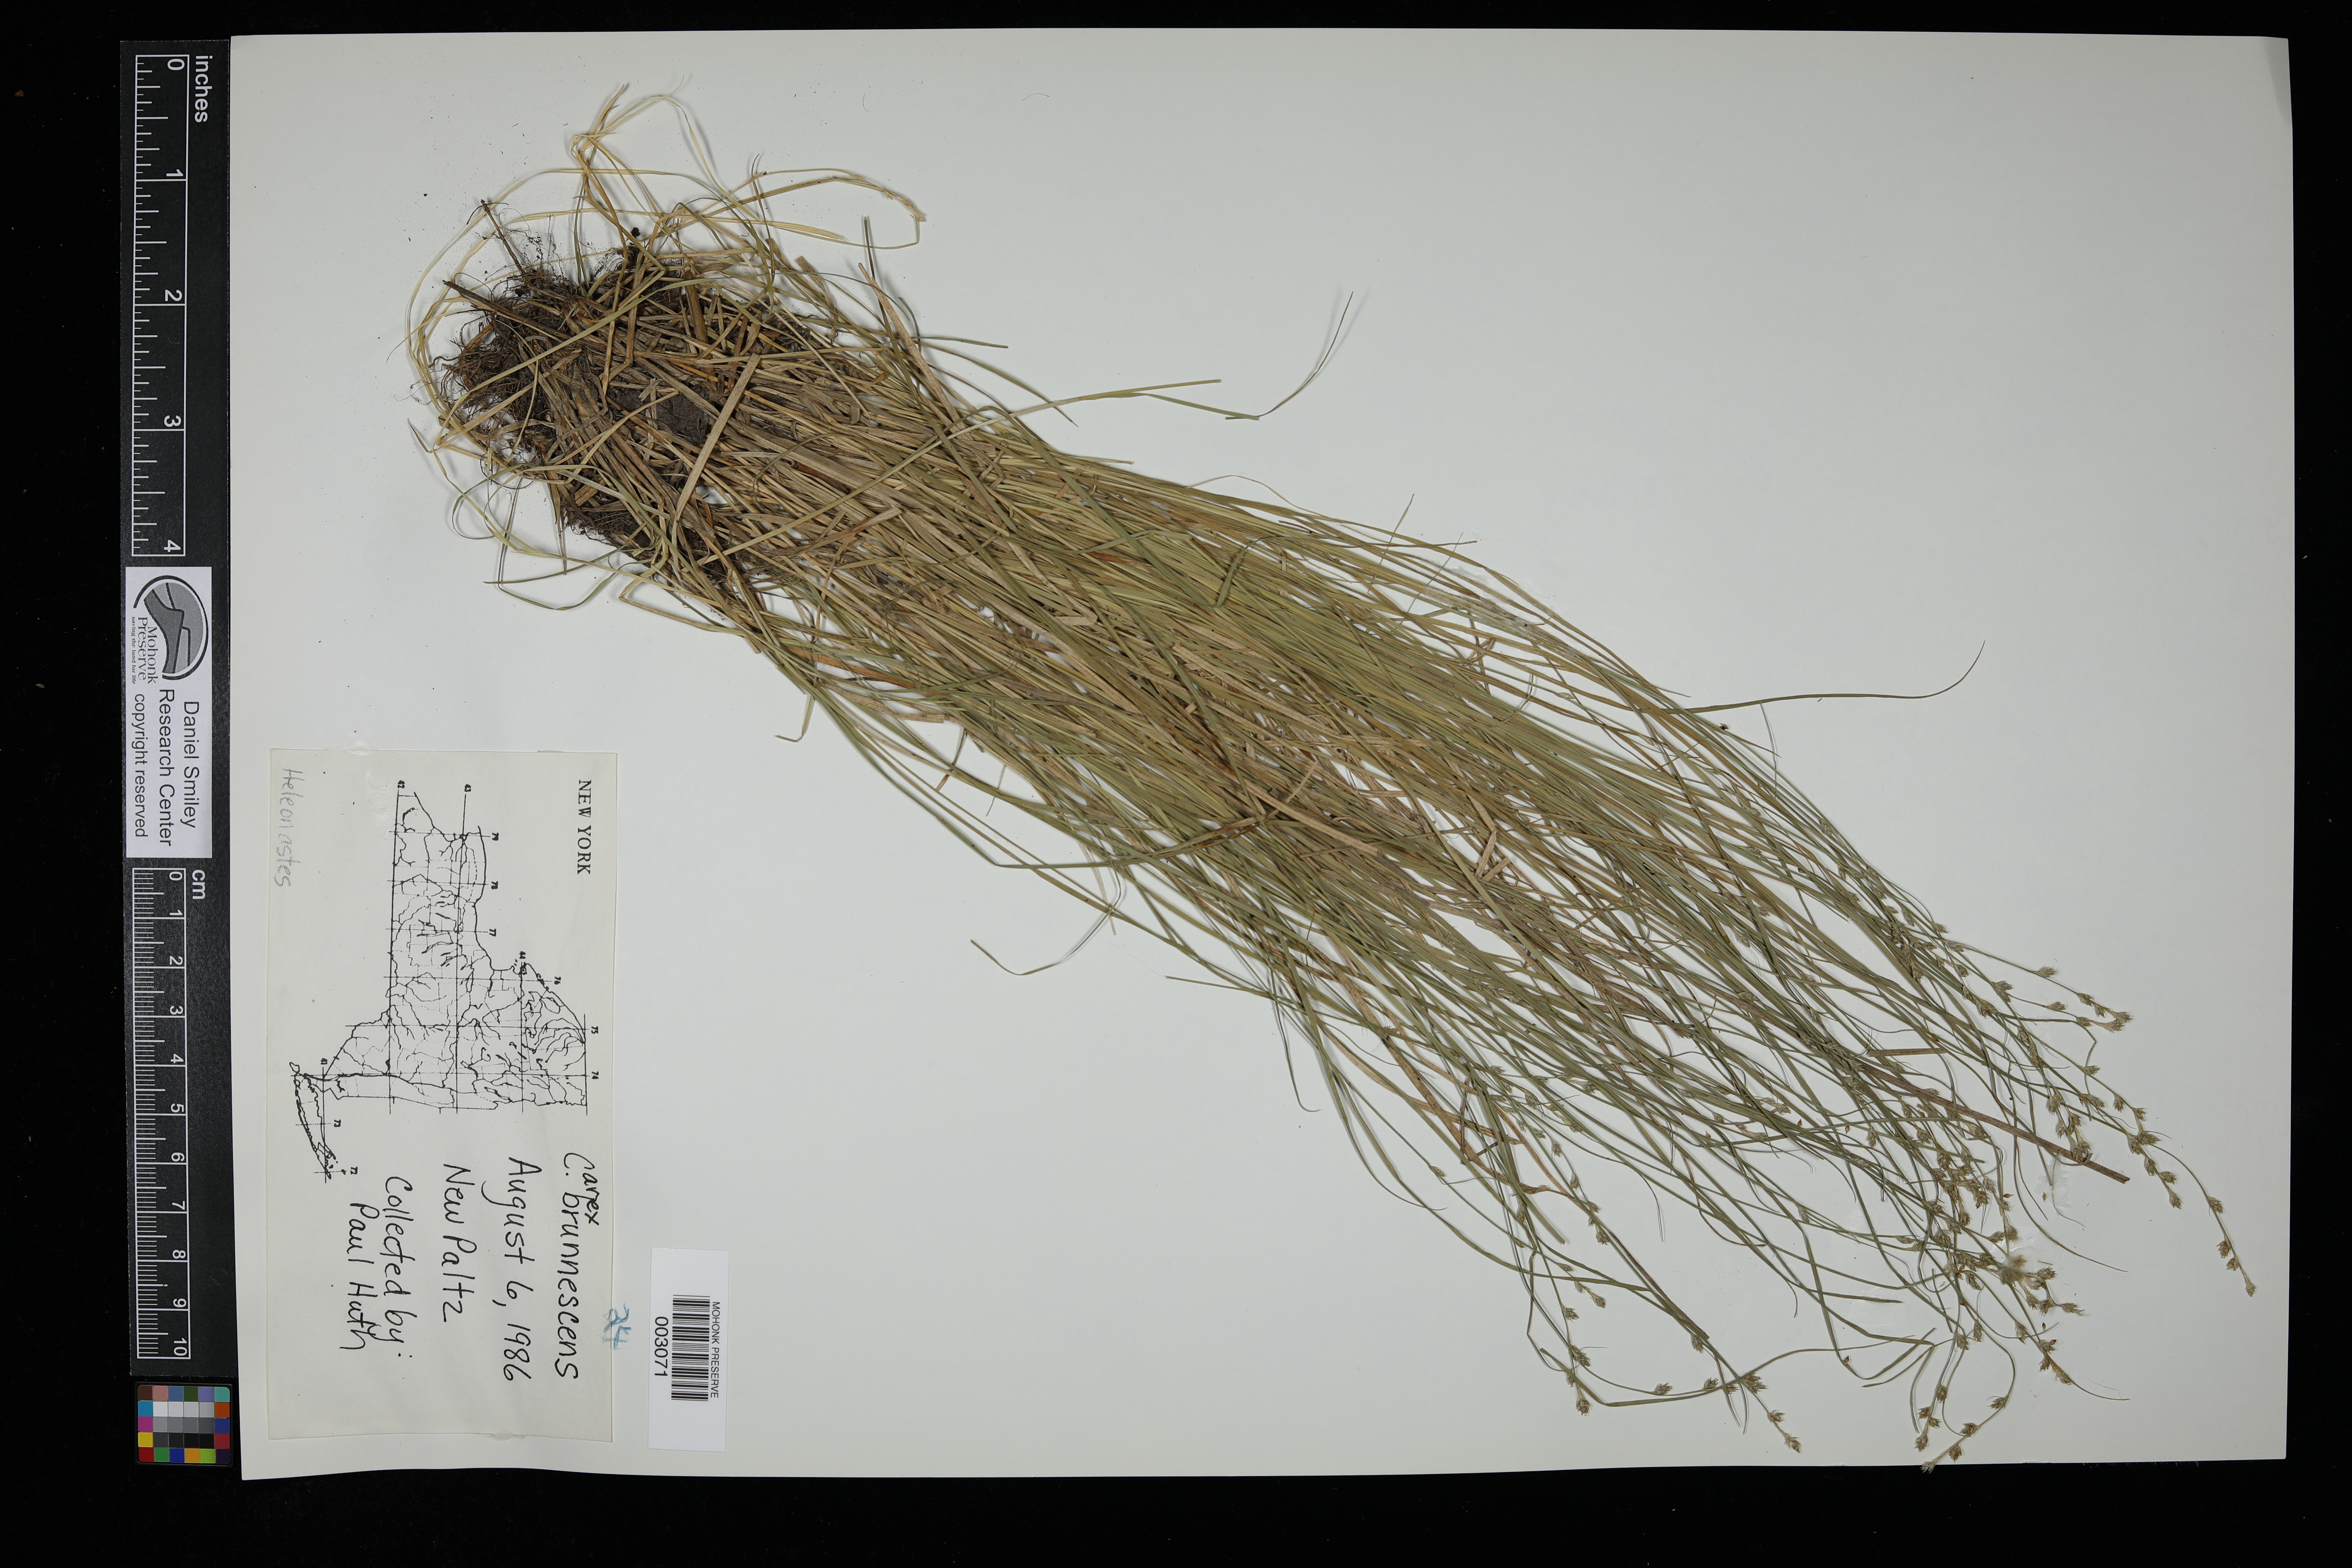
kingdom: Plantae
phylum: Tracheophyta
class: Liliopsida
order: Poales
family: Cyperaceae
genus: Carex
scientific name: Carex brunnescens
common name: Brown sedge
